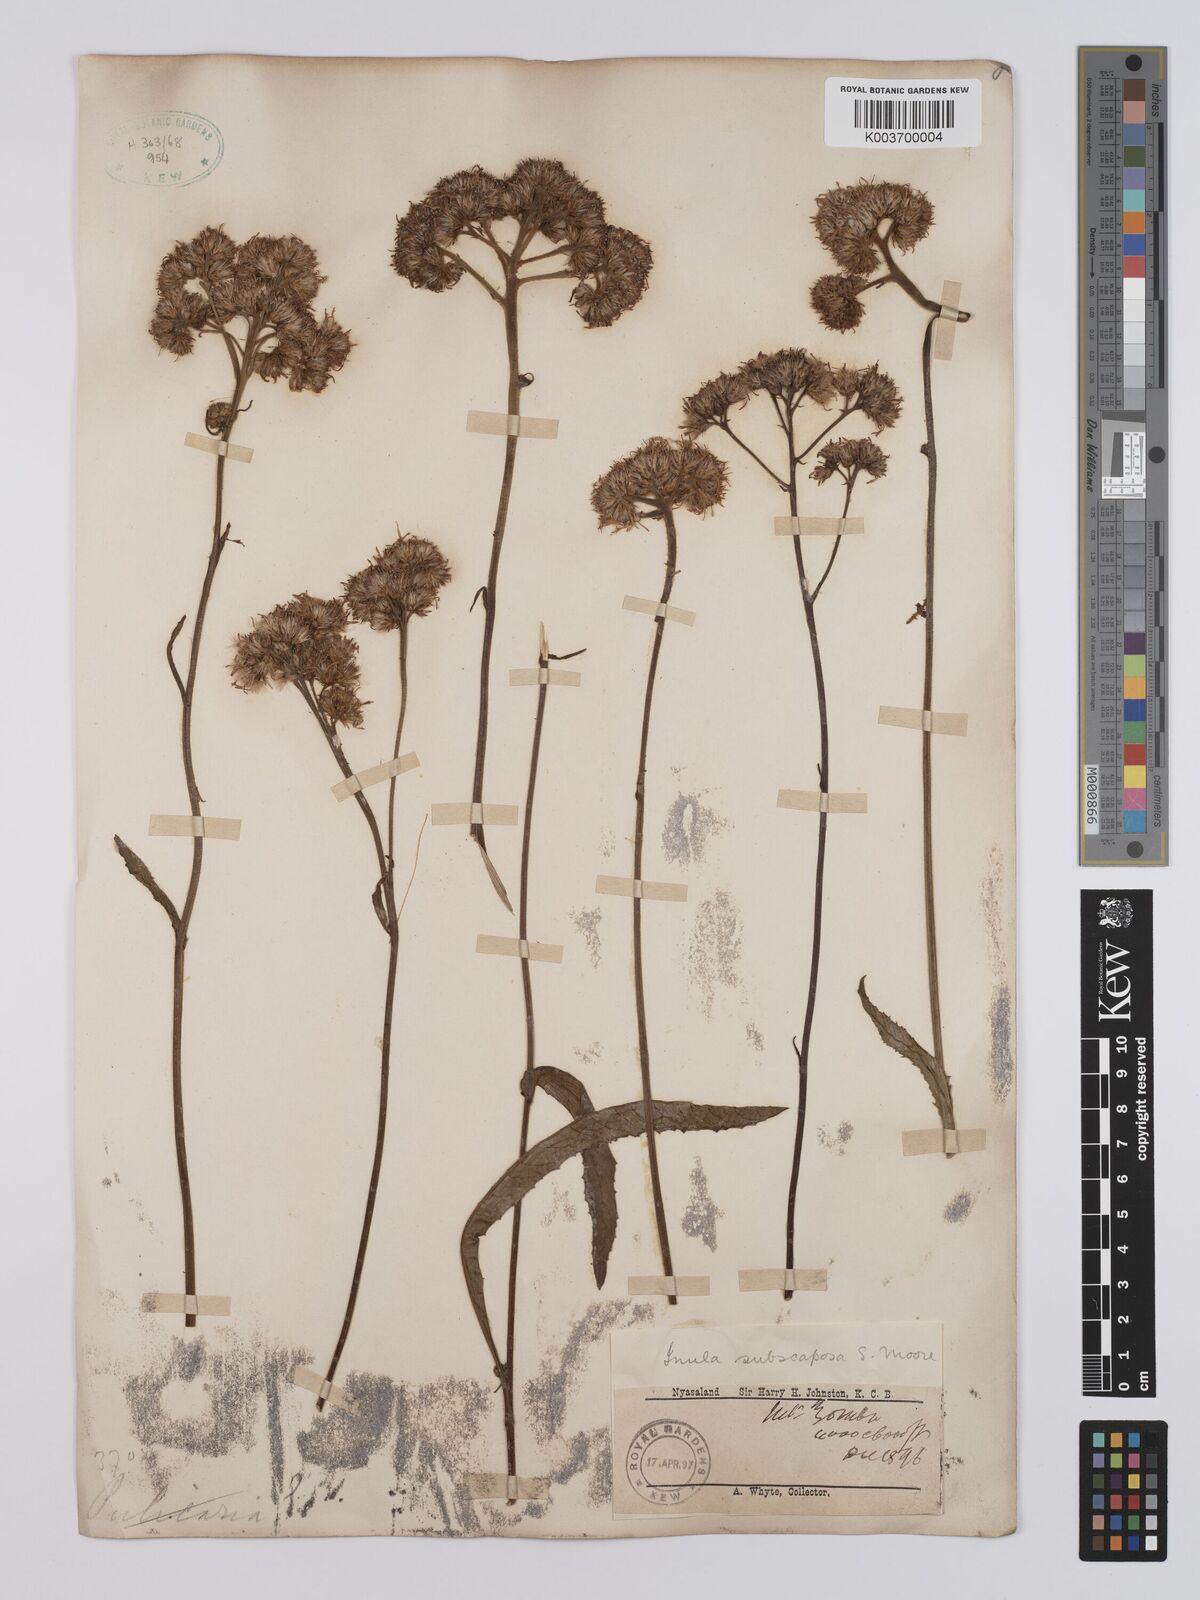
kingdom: Plantae
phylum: Tracheophyta
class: Magnoliopsida
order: Asterales
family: Asteraceae
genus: Monactinocephalus
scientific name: Monactinocephalus paniculatus
